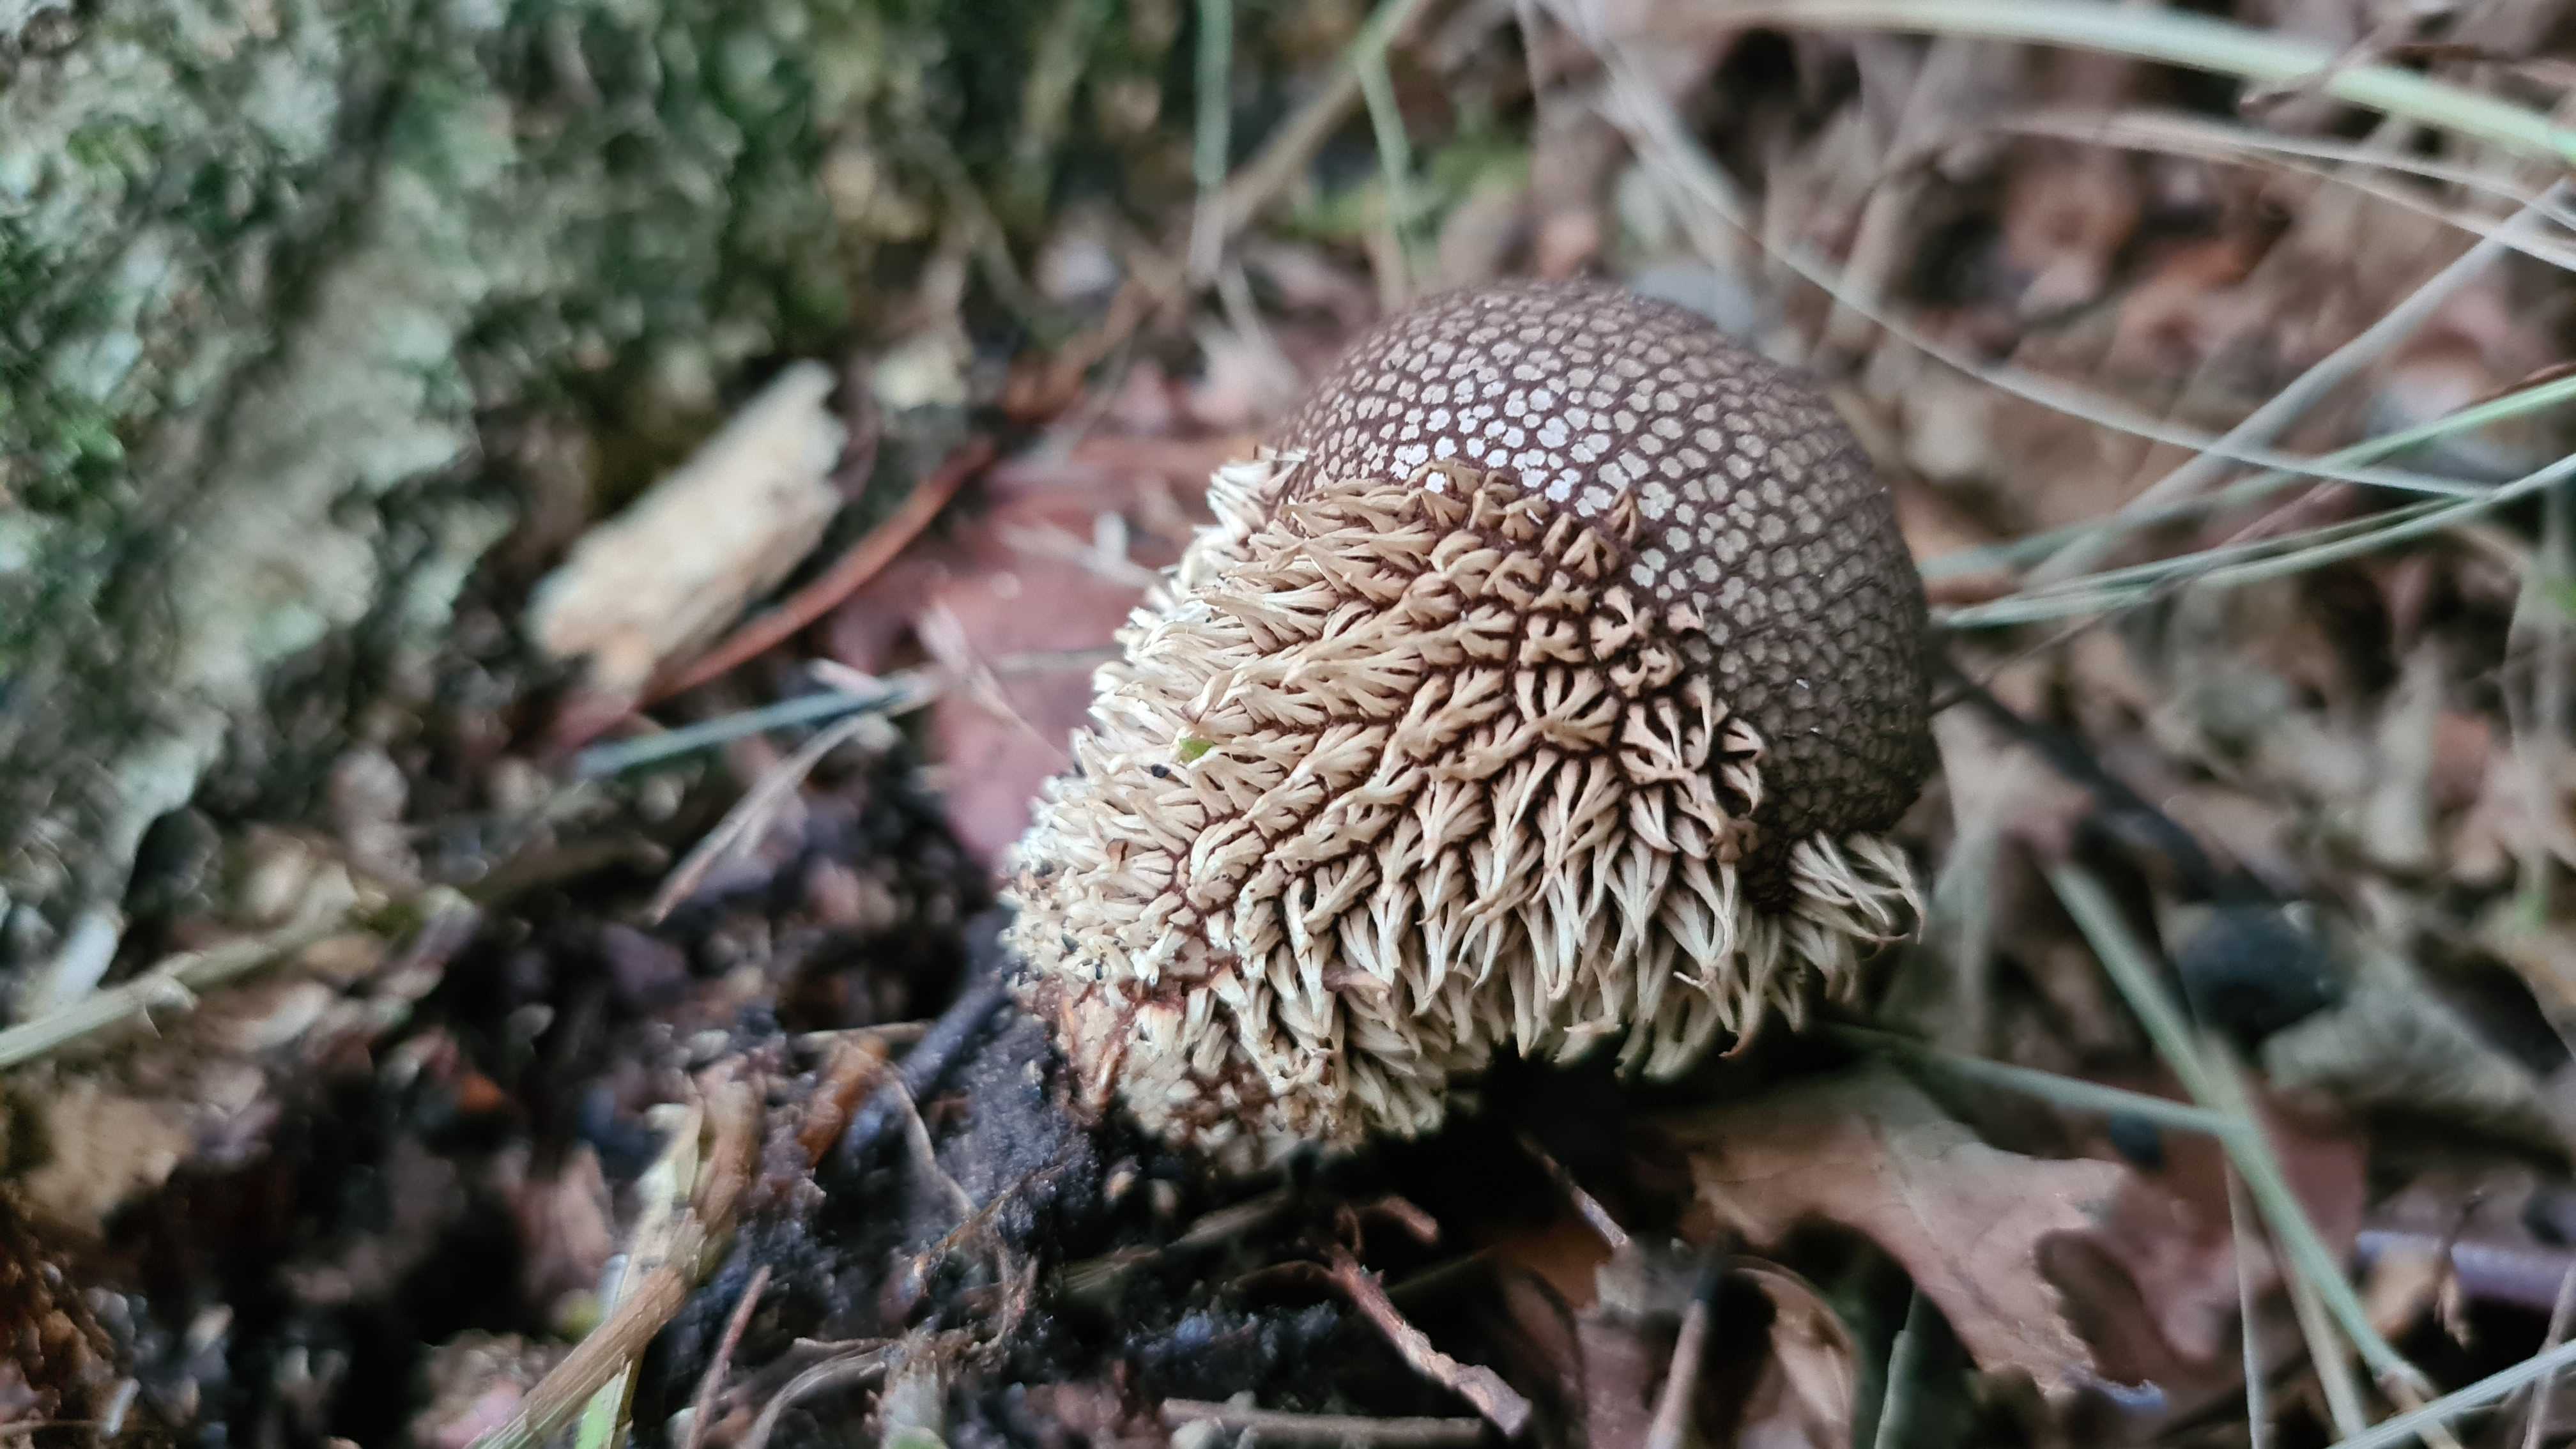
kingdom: Fungi
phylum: Basidiomycota
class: Agaricomycetes
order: Agaricales
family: Lycoperdaceae
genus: Lycoperdon
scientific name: Lycoperdon echinatum
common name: pindsvine-støvbold
